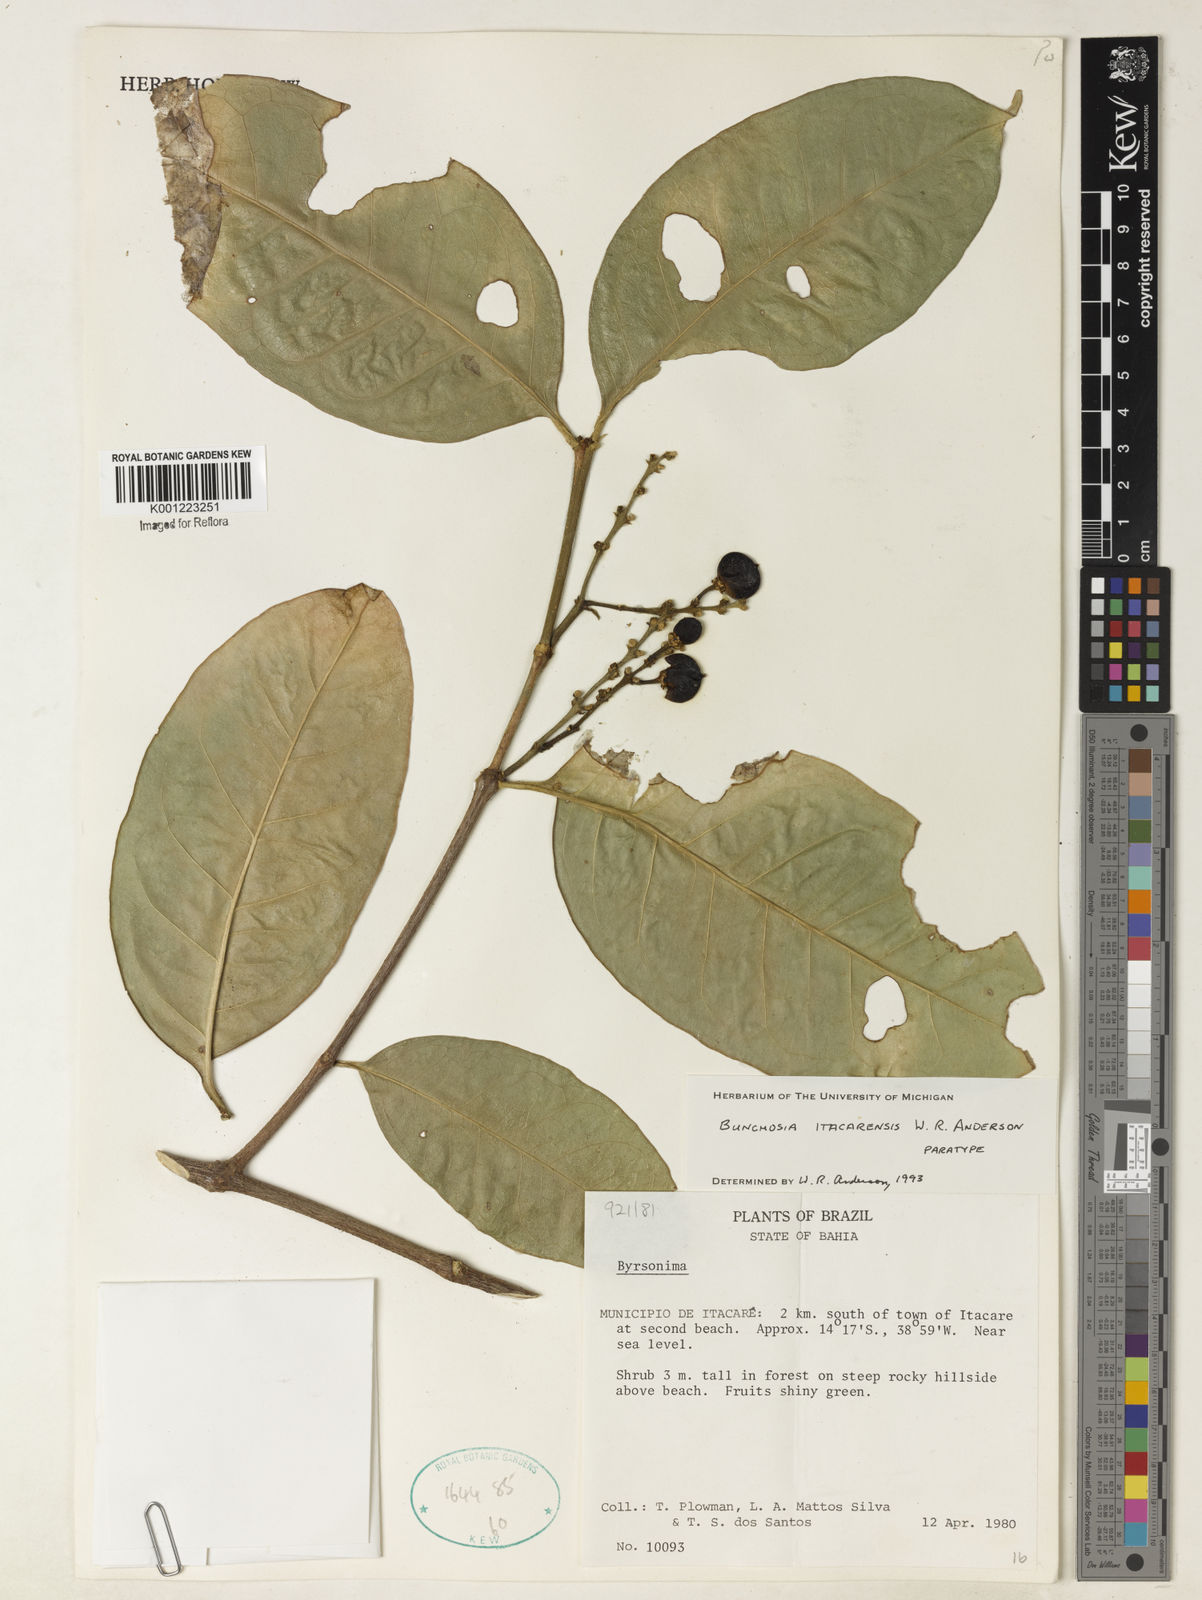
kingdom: Plantae
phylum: Tracheophyta
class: Magnoliopsida
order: Malpighiales
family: Malpighiaceae
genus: Bunchosia
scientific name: Bunchosia itacarensis
